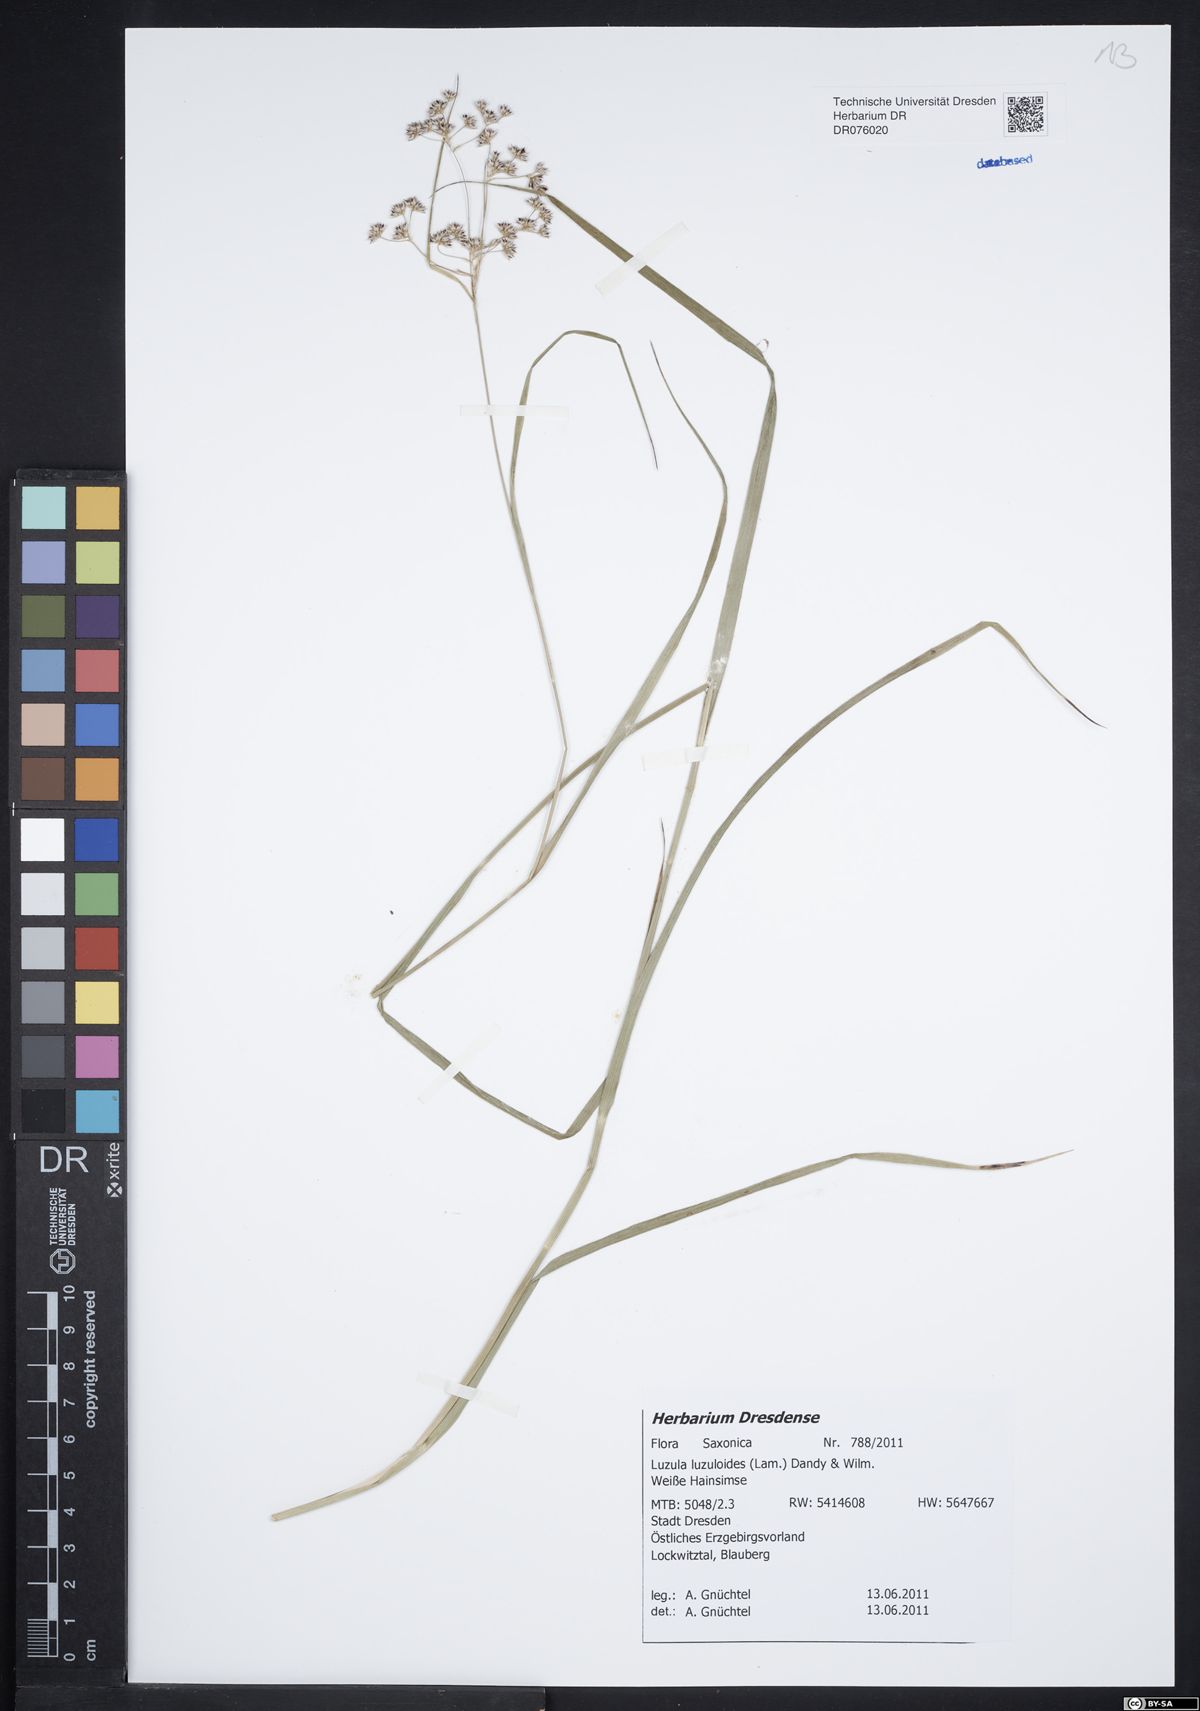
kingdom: Plantae
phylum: Tracheophyta
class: Liliopsida
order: Poales
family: Juncaceae
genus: Luzula
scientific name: Luzula luzuloides
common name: White wood-rush
